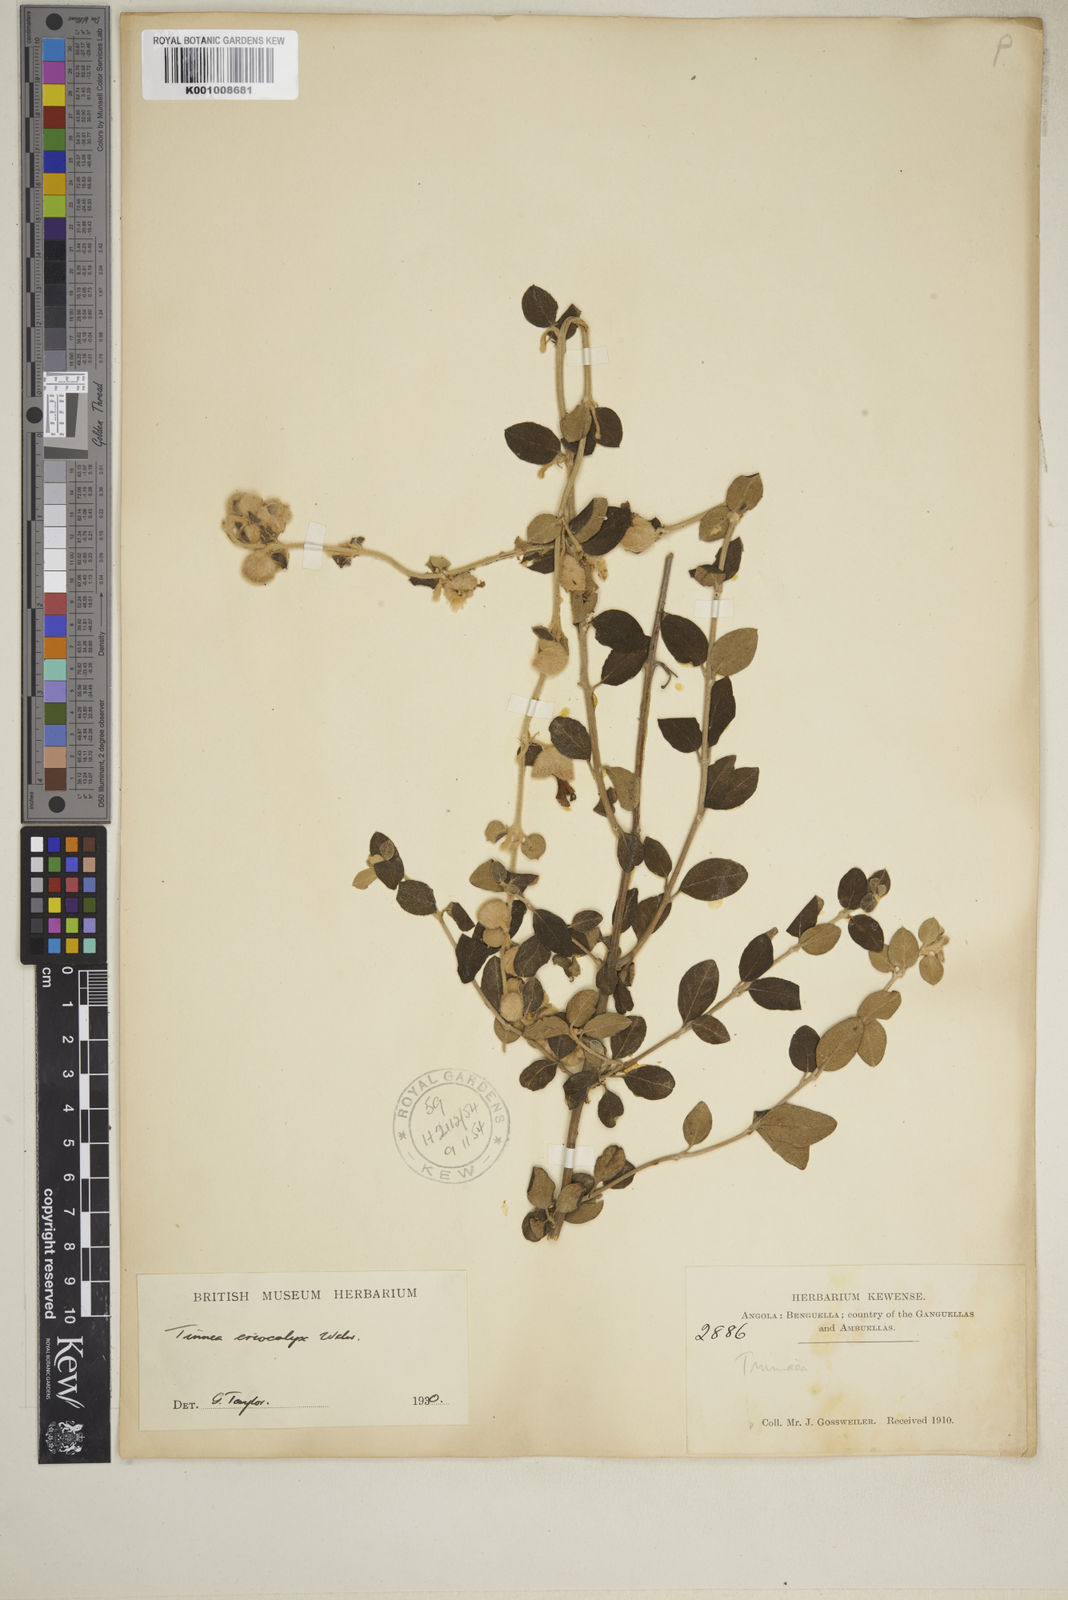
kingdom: Plantae
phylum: Tracheophyta
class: Magnoliopsida
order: Lamiales
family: Lamiaceae
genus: Tinnea
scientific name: Tinnea eriocalyx
